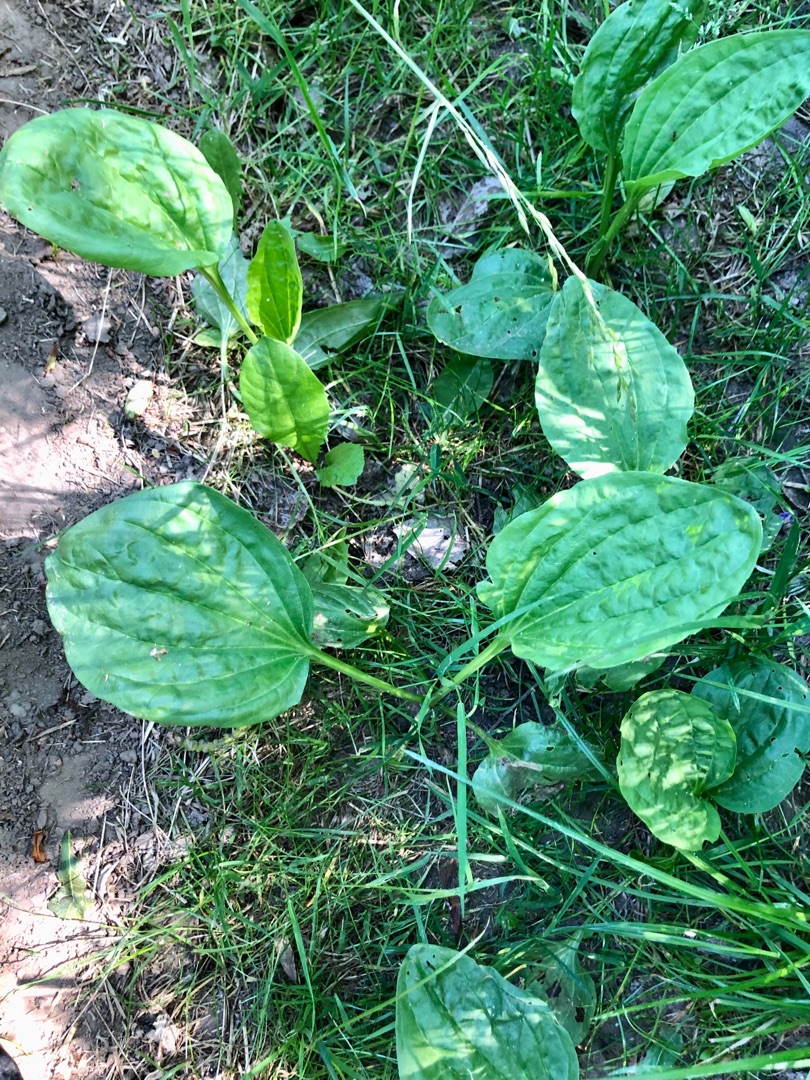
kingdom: Plantae
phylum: Tracheophyta
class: Magnoliopsida
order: Lamiales
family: Plantaginaceae
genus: Plantago
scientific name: Plantago major
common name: Glat vejbred
